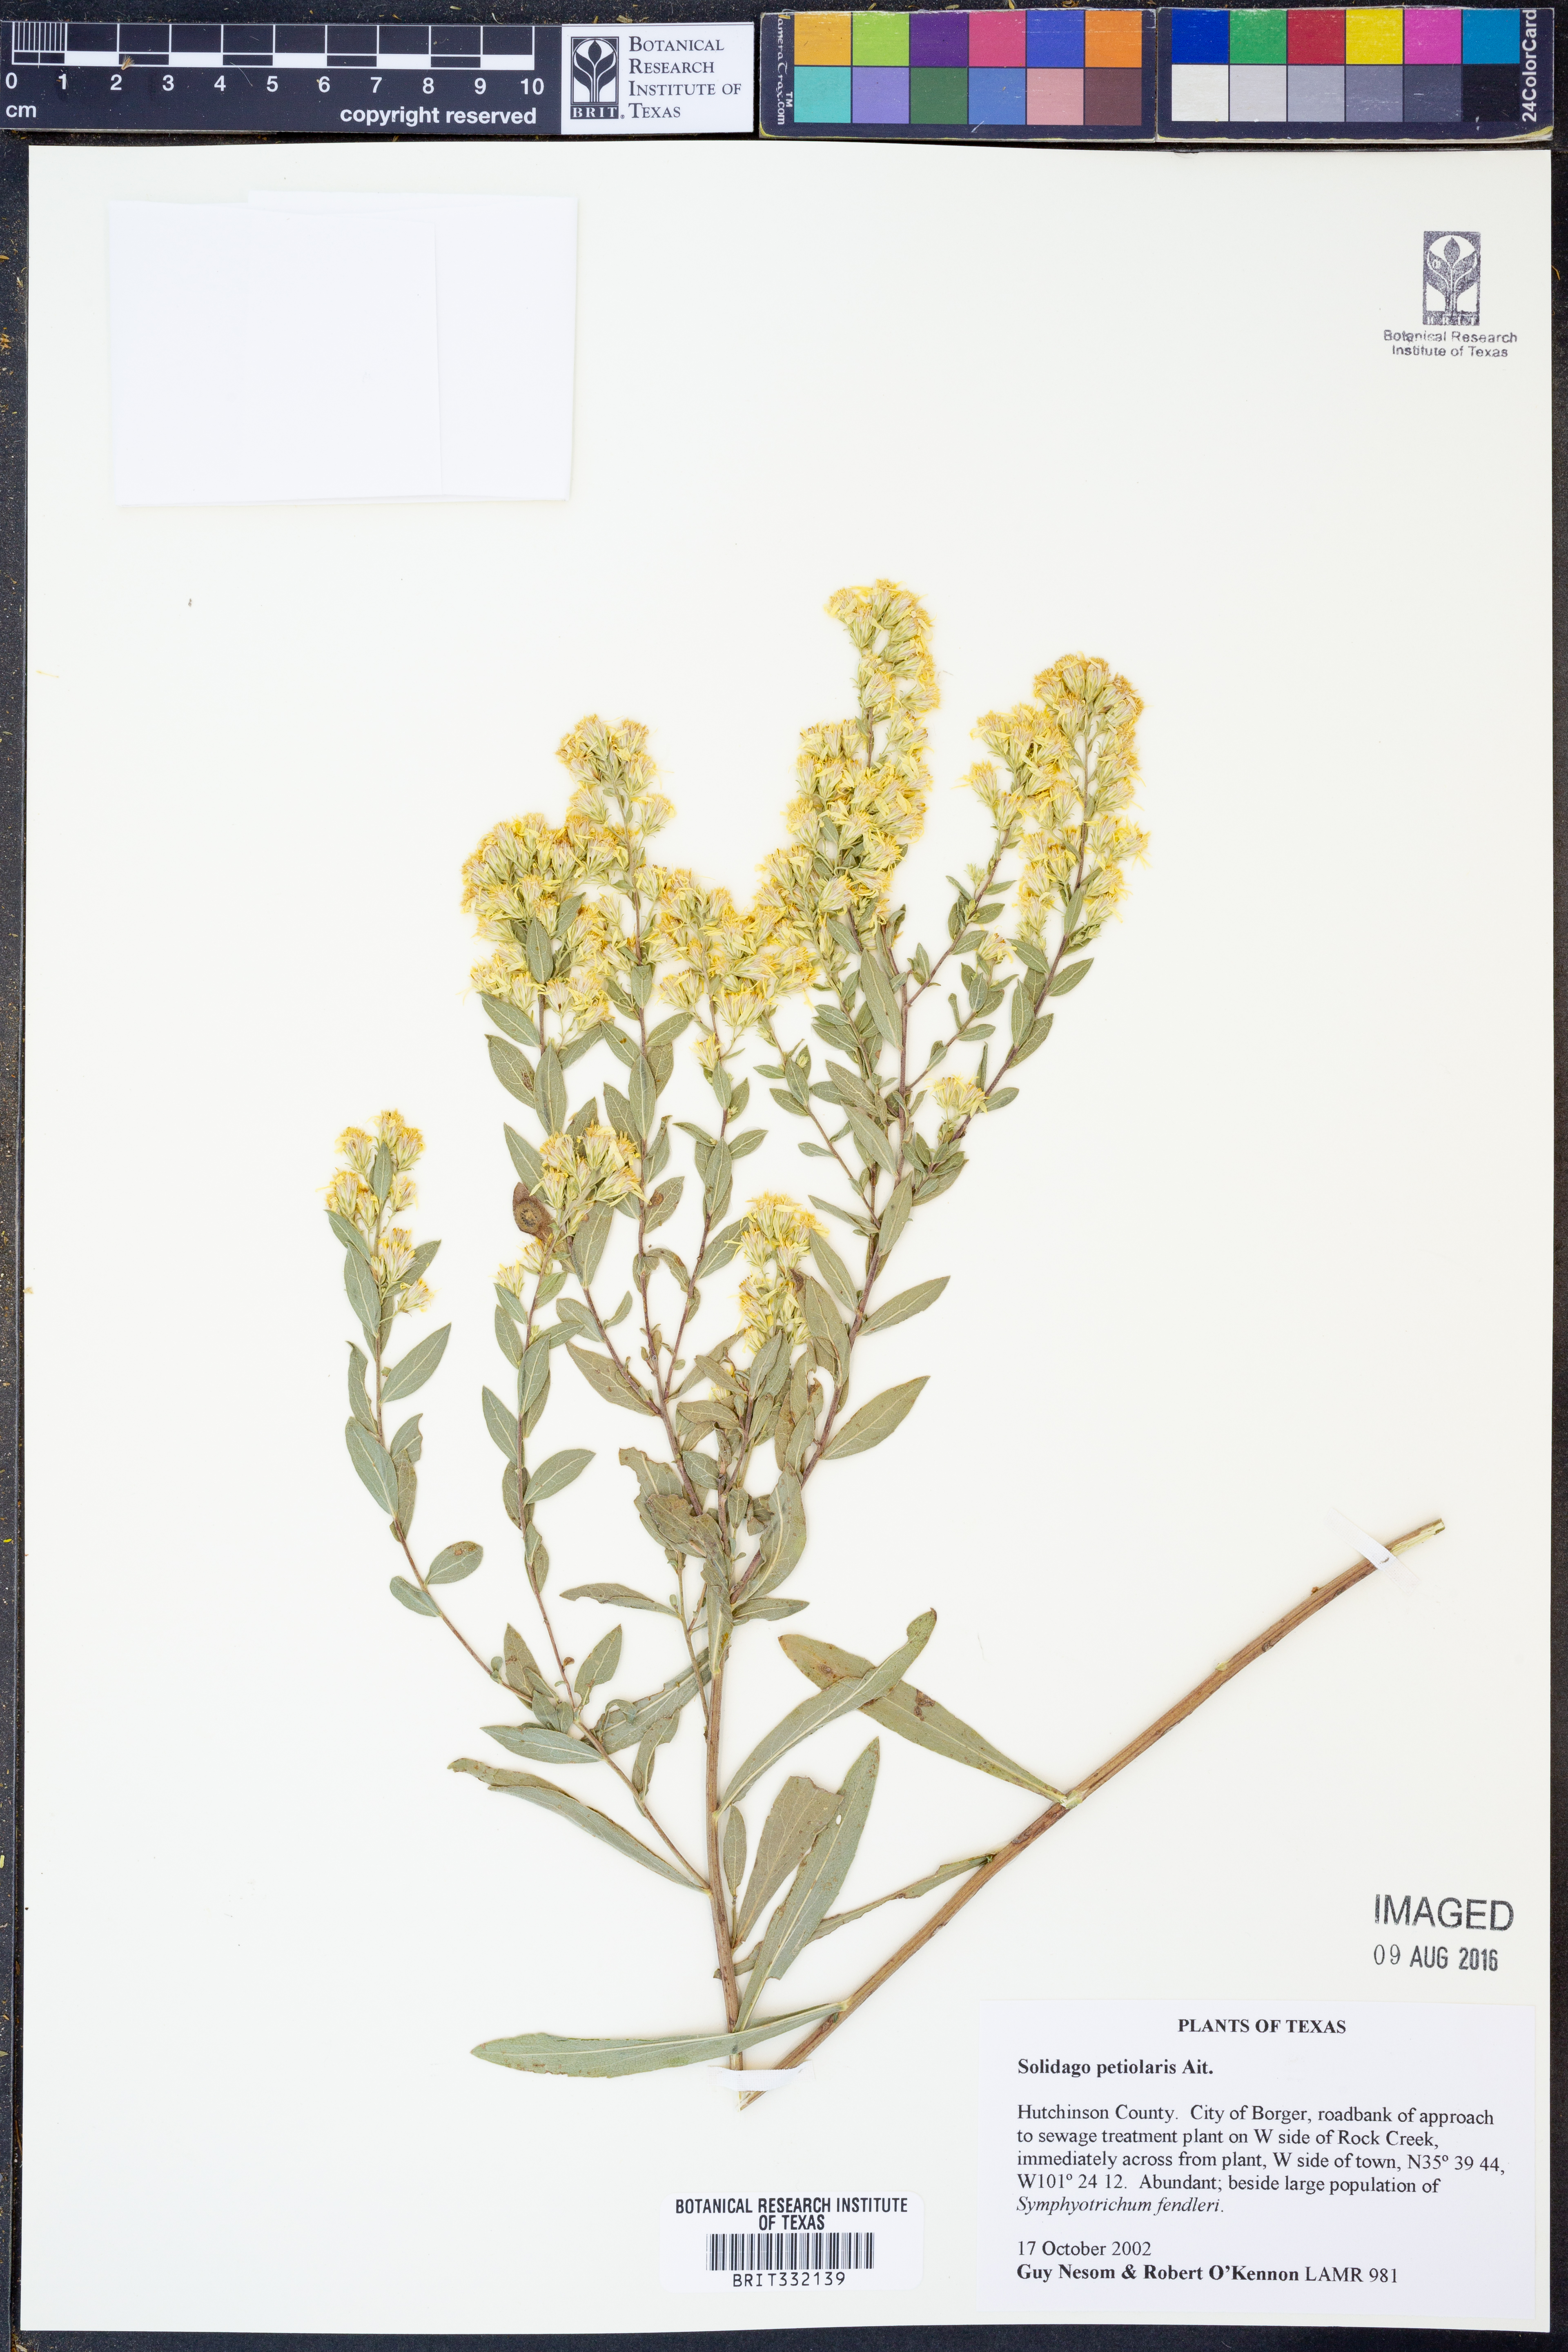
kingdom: Plantae
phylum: Tracheophyta
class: Magnoliopsida
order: Asterales
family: Asteraceae
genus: Solidago
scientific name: Solidago petiolaris
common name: Downy ragged goldenrod
